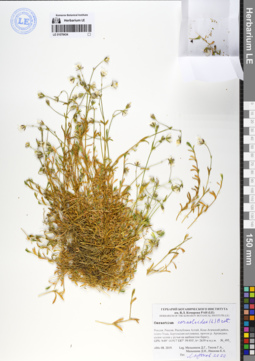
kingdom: Plantae
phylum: Tracheophyta
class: Magnoliopsida
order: Caryophyllales
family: Caryophyllaceae
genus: Dichodon
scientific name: Dichodon cerastoides
